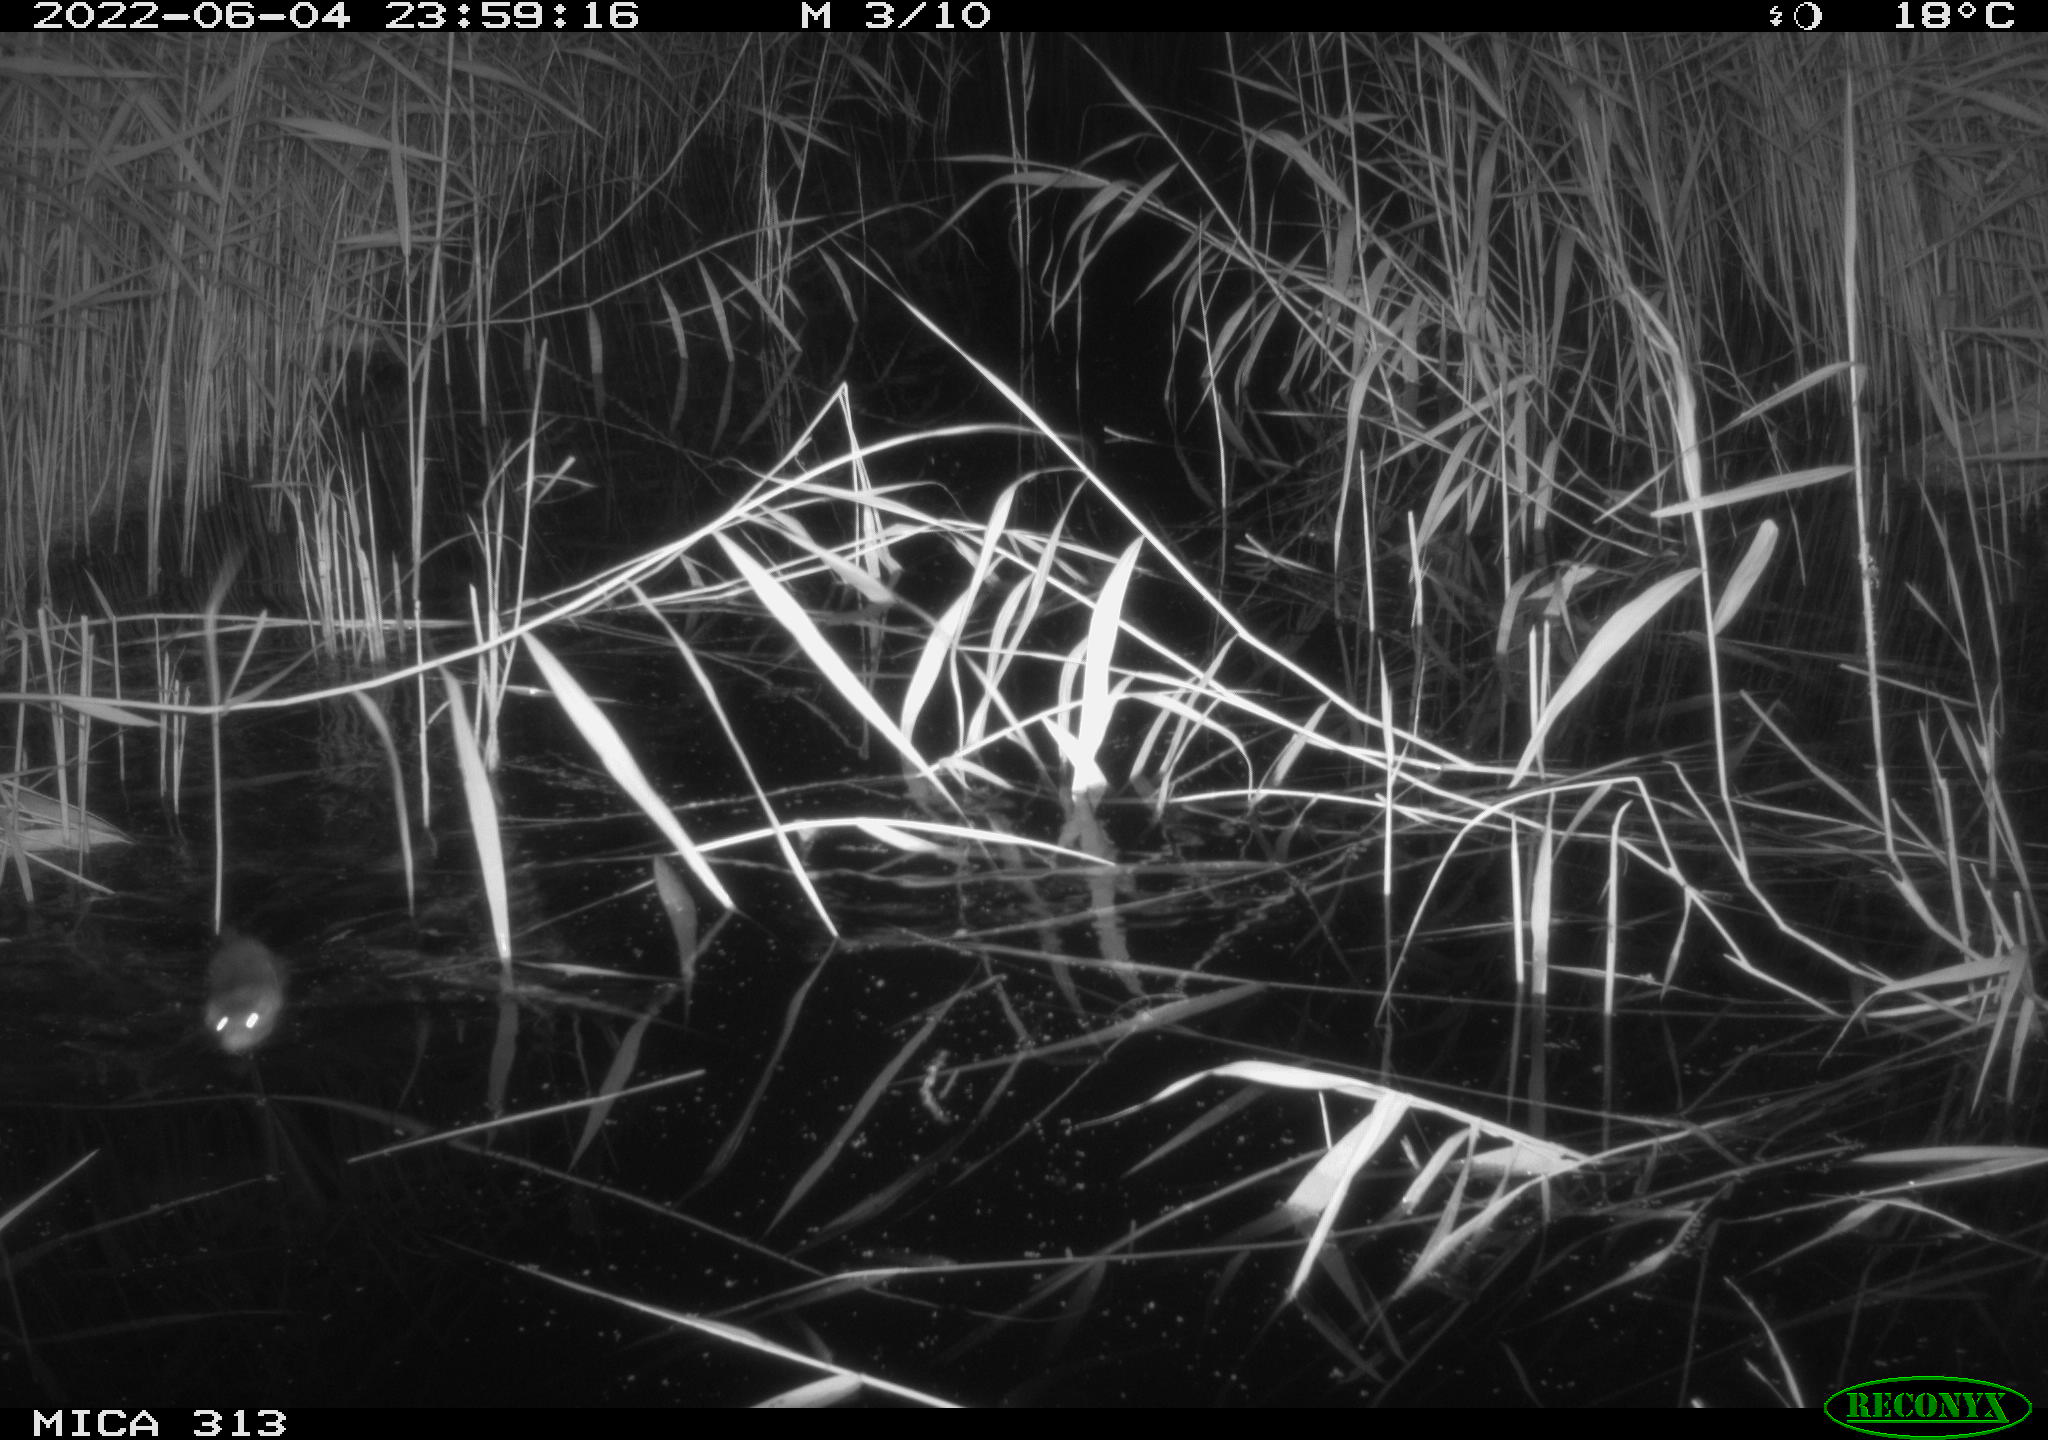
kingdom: Animalia
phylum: Chordata
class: Mammalia
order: Rodentia
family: Cricetidae
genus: Ondatra
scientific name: Ondatra zibethicus
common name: Muskrat
